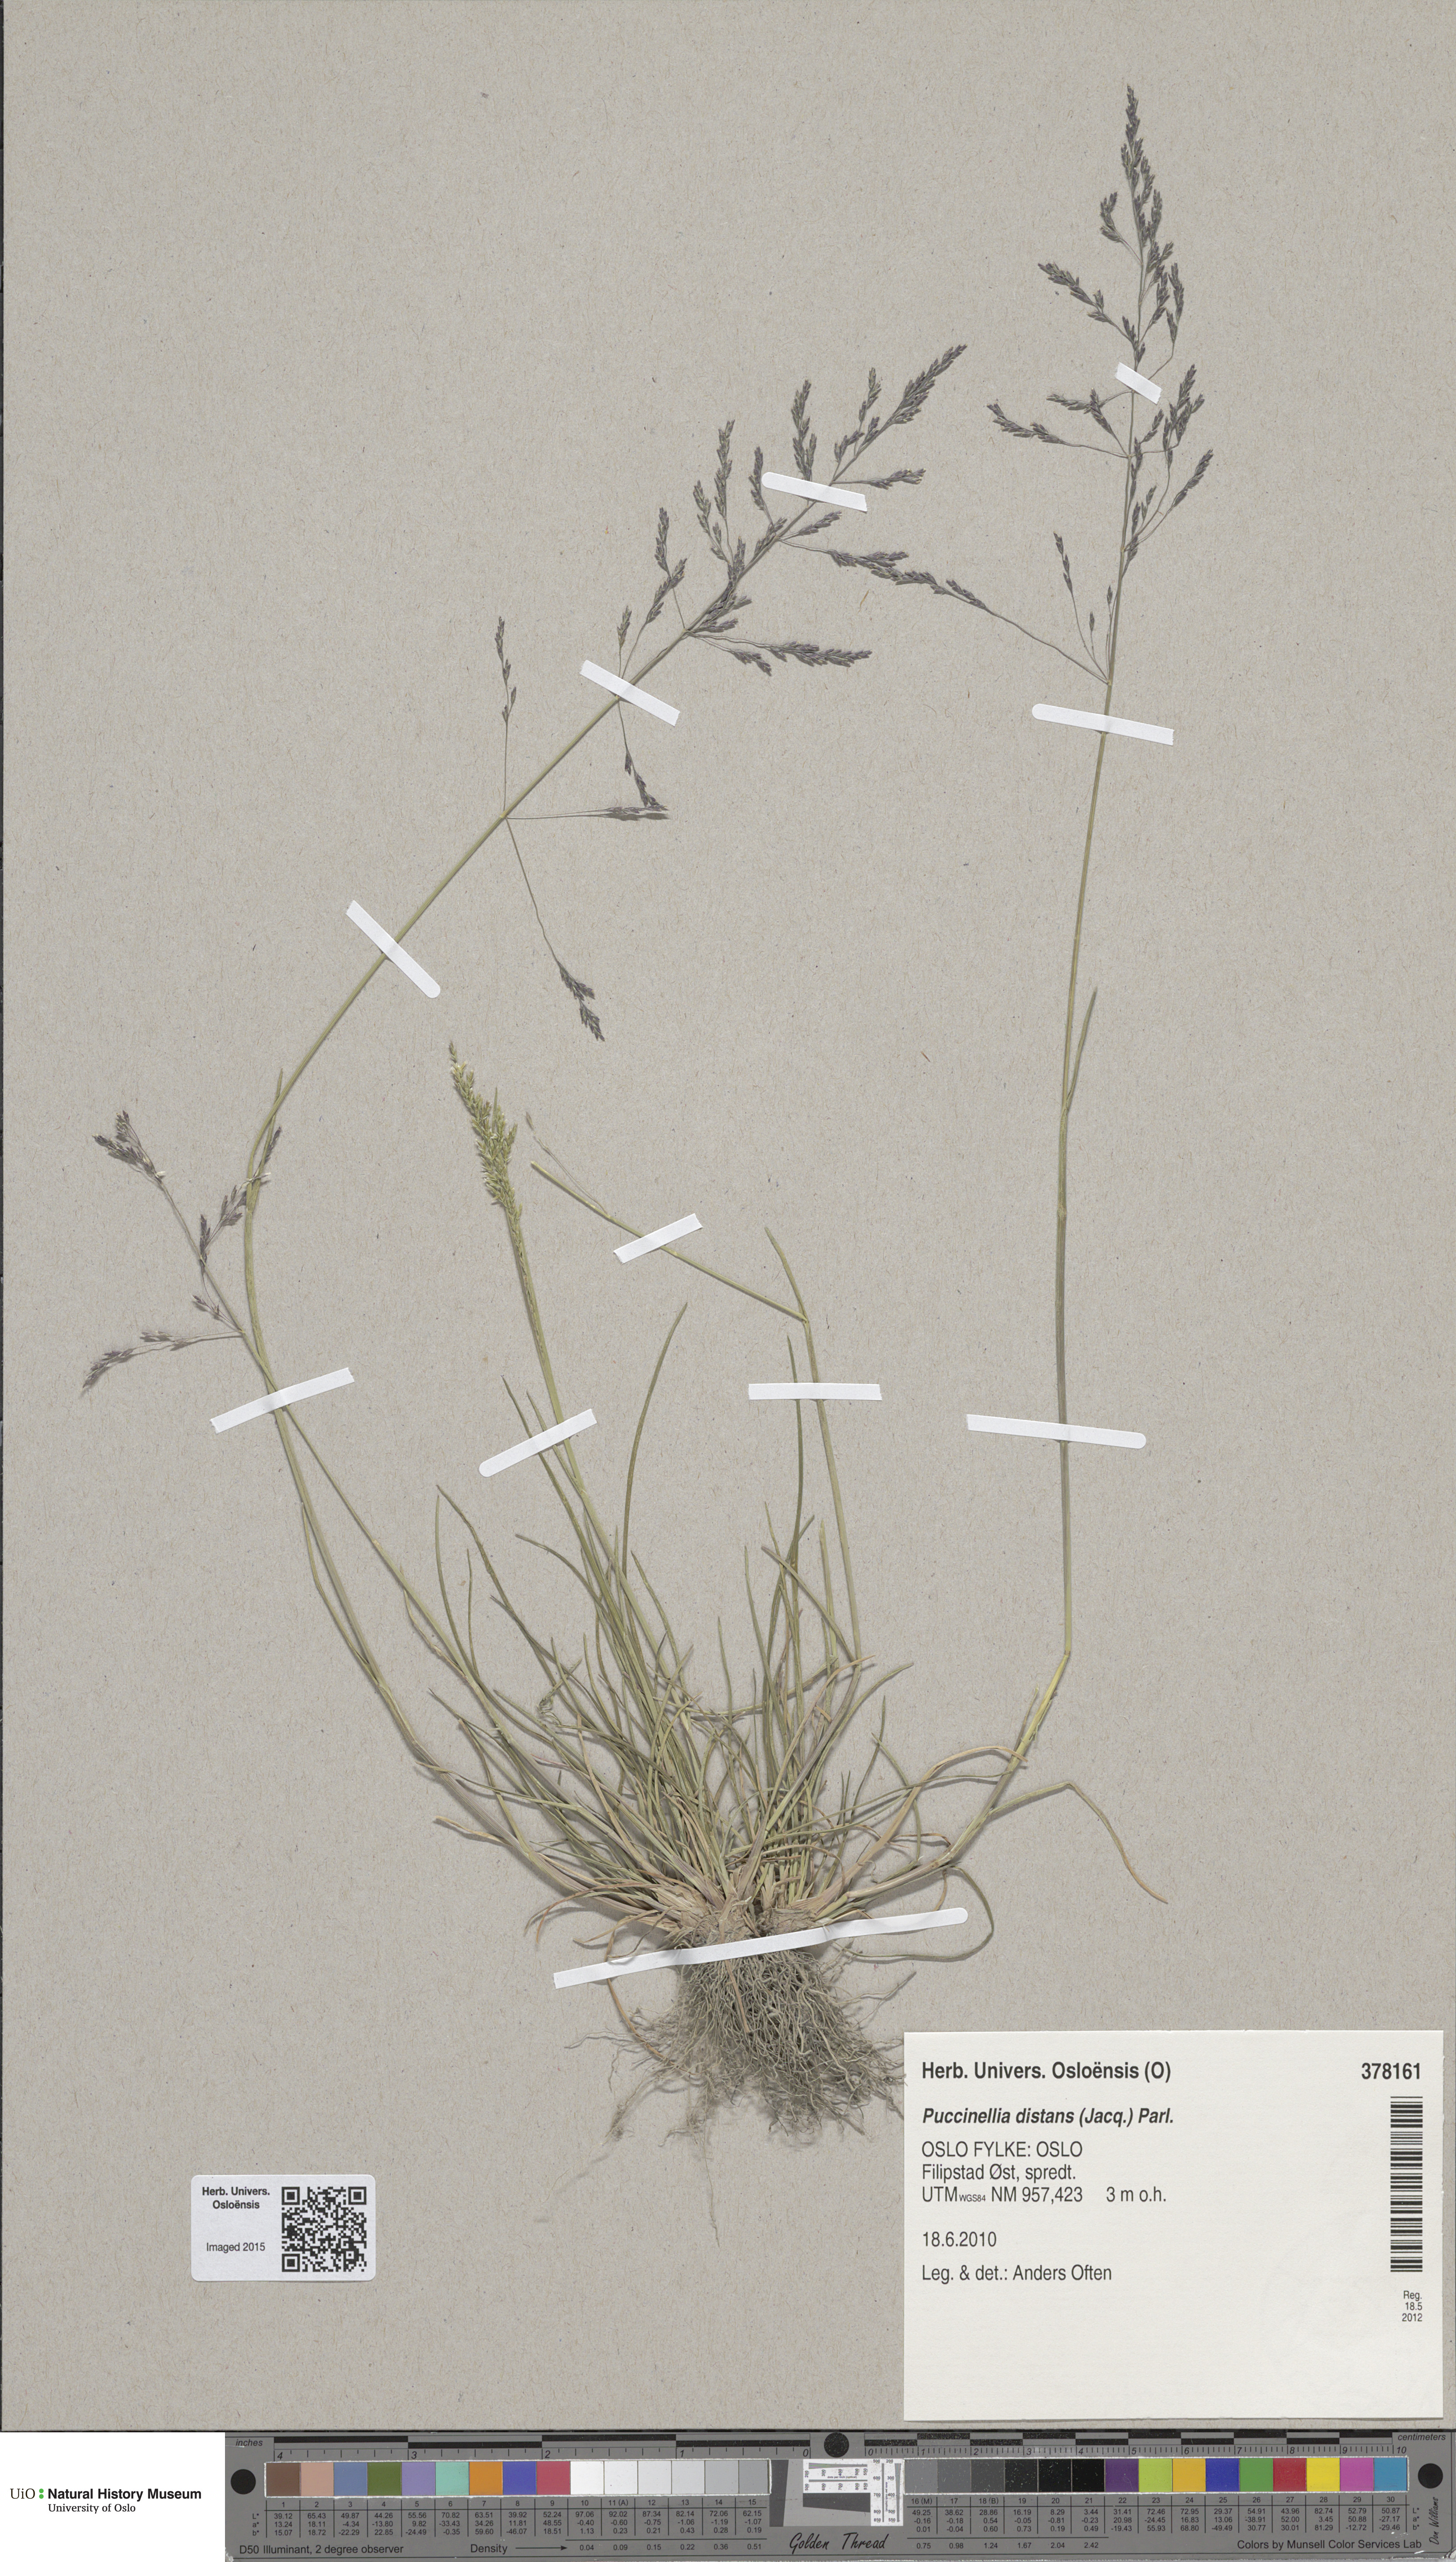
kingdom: Plantae
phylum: Tracheophyta
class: Liliopsida
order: Poales
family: Poaceae
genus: Puccinellia
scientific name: Puccinellia distans
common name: Weeping alkaligrass
